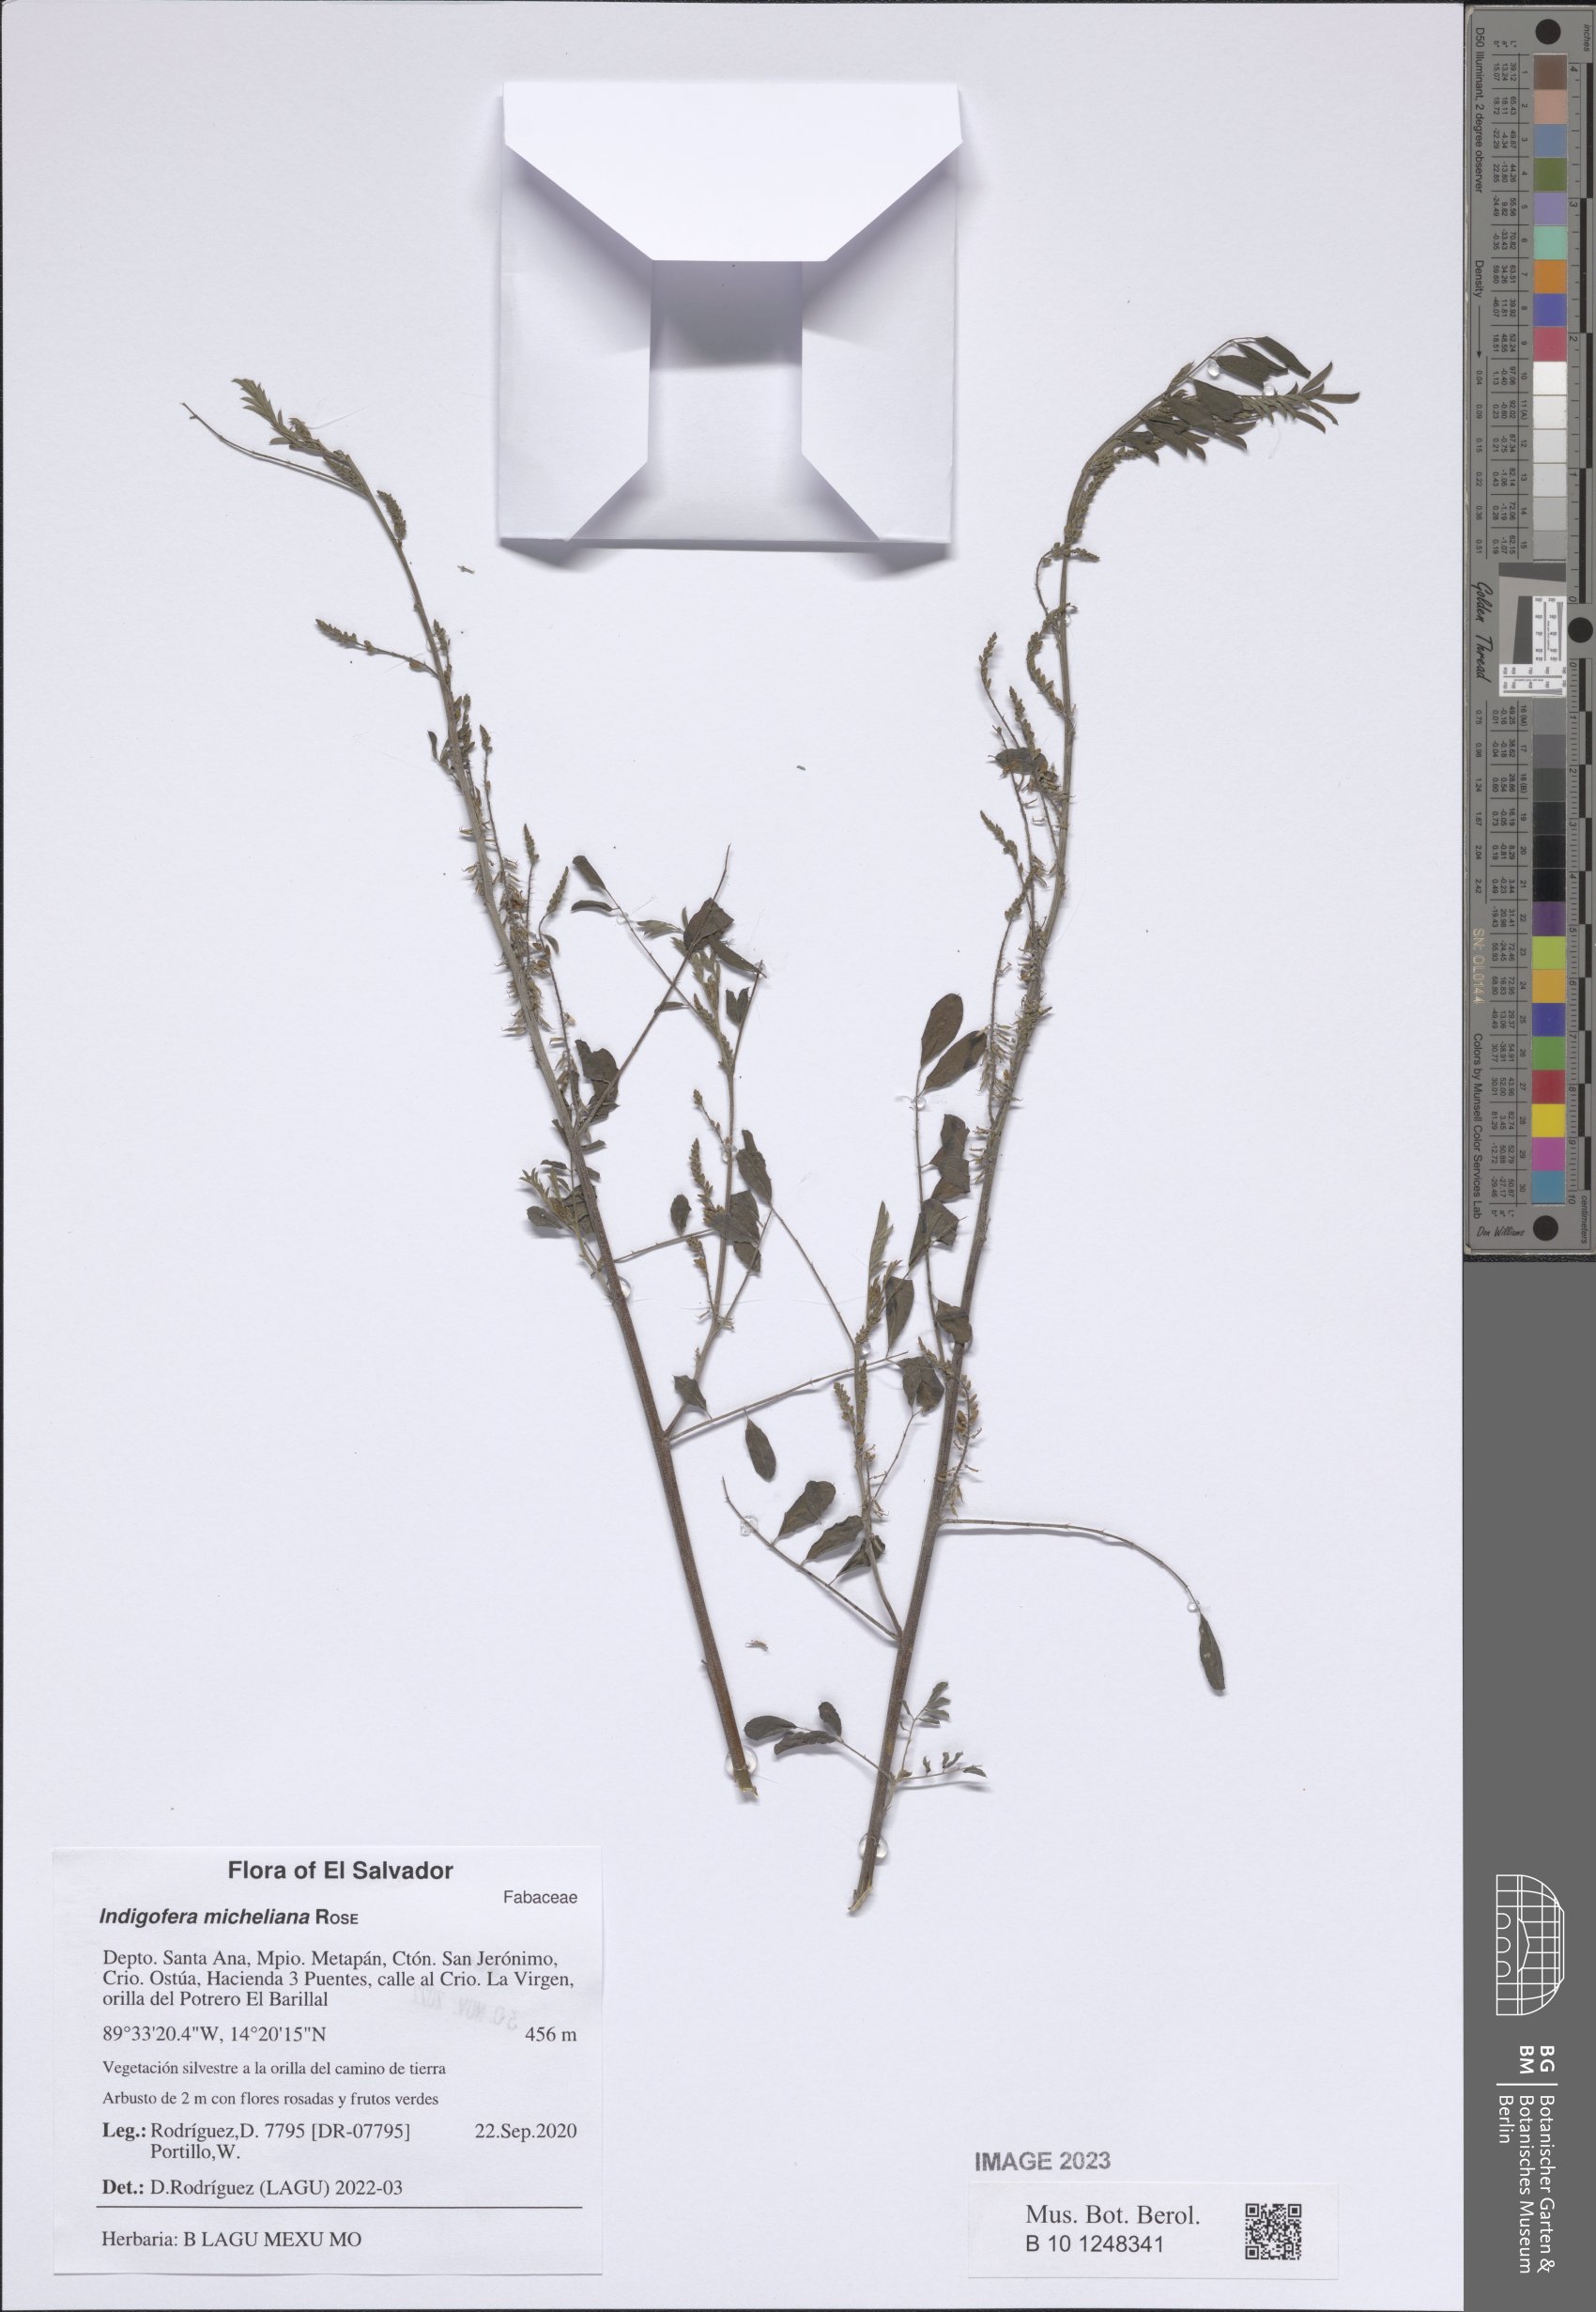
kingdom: Plantae
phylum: Tracheophyta
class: Magnoliopsida
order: Fabales
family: Fabaceae
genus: Indigofera
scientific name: Indigofera micheliana
